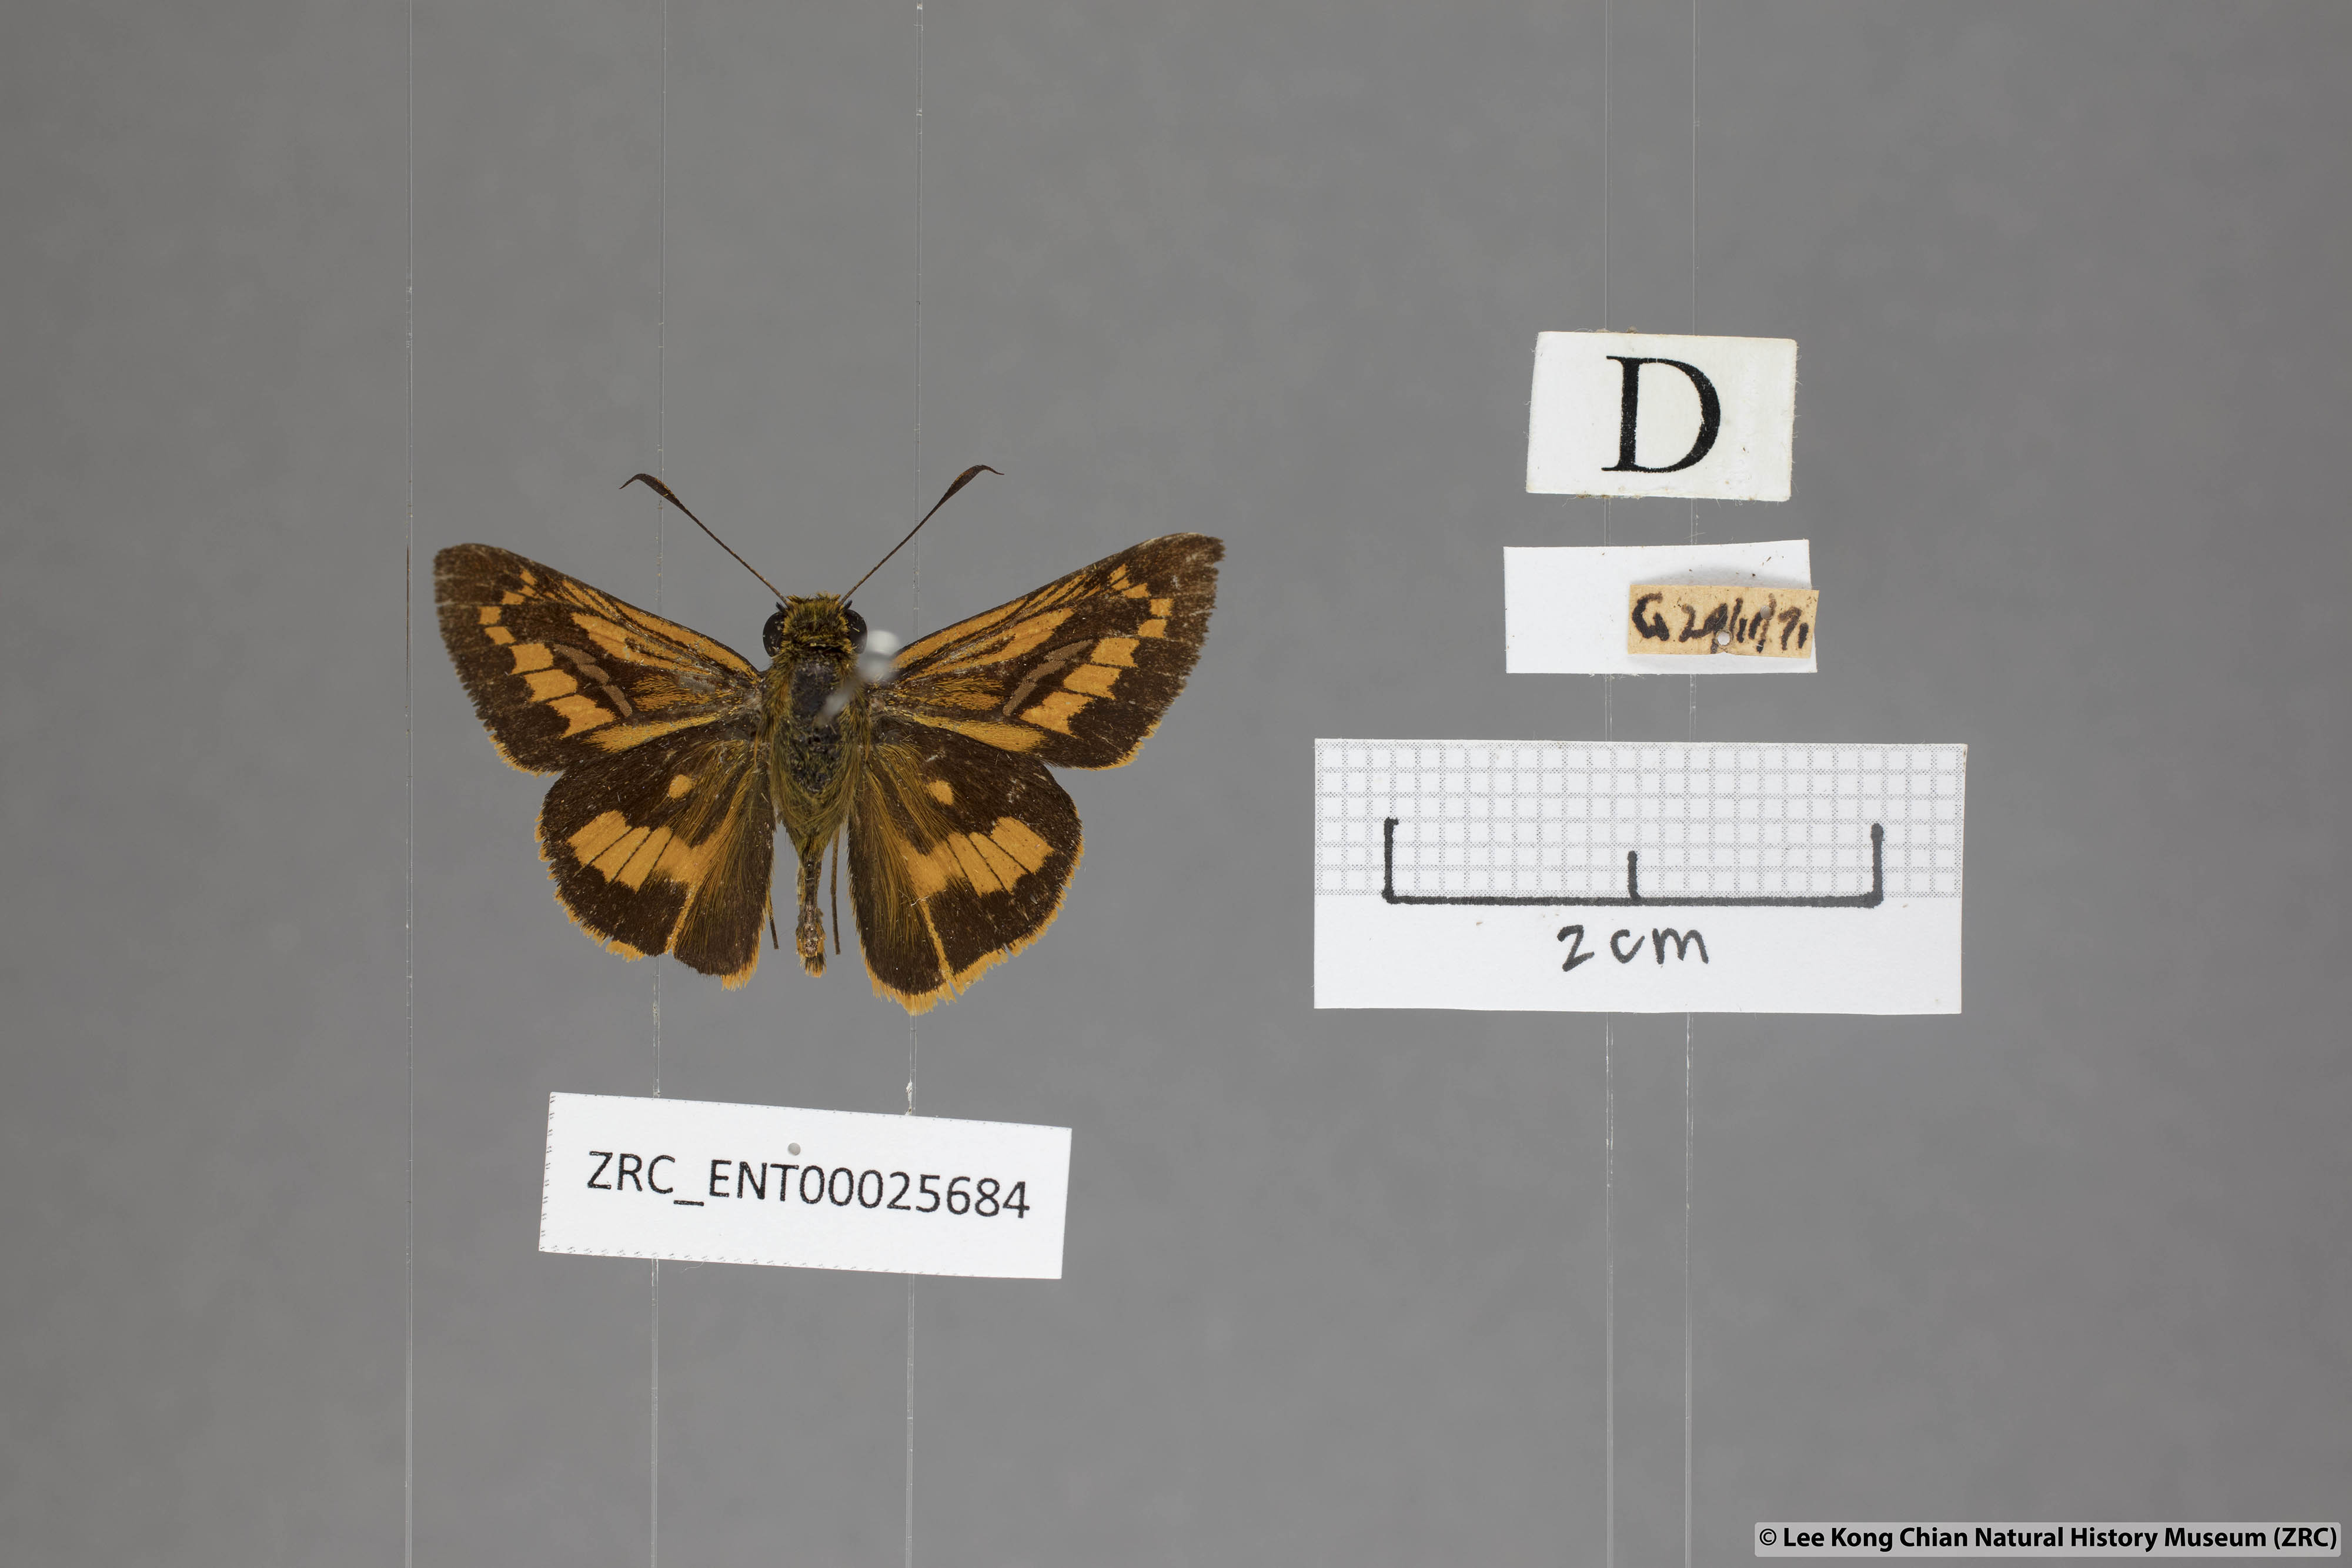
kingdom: Animalia
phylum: Arthropoda
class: Insecta
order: Lepidoptera
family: Hesperiidae
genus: Telicota
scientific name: Telicota ohara
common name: Dark palm dart
